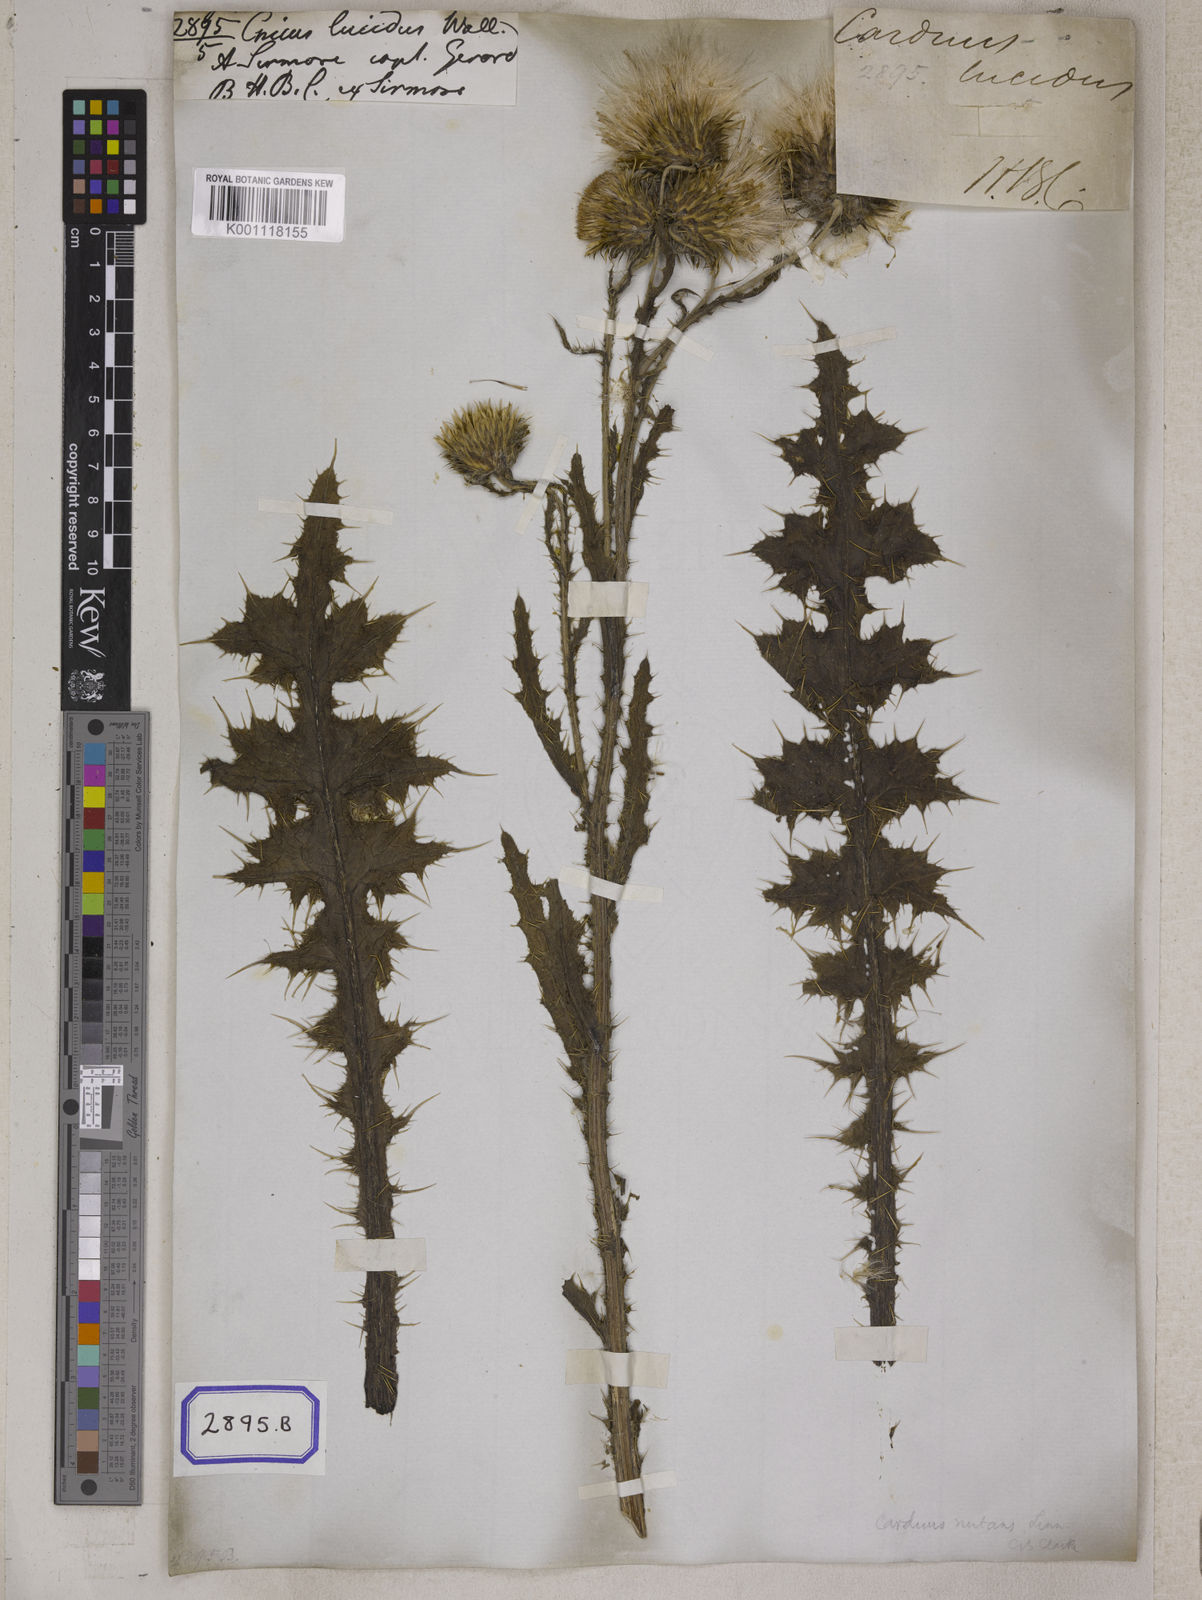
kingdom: Plantae
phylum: Tracheophyta
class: Magnoliopsida
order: Asterales
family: Asteraceae
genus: Carduus
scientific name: Carduus edelbergii
